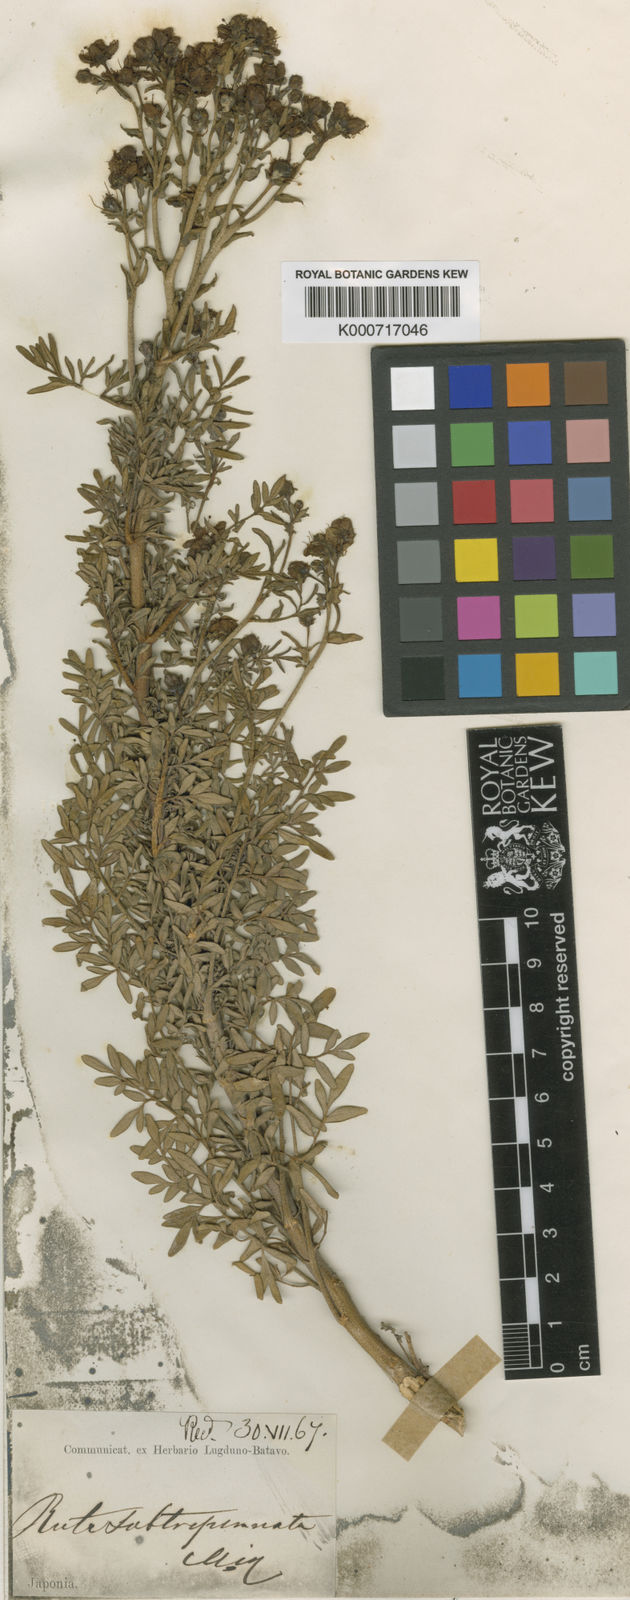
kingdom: Plantae
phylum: Tracheophyta
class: Magnoliopsida
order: Sapindales
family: Rutaceae
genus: Ruta
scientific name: Ruta graveolens
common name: Common rue
